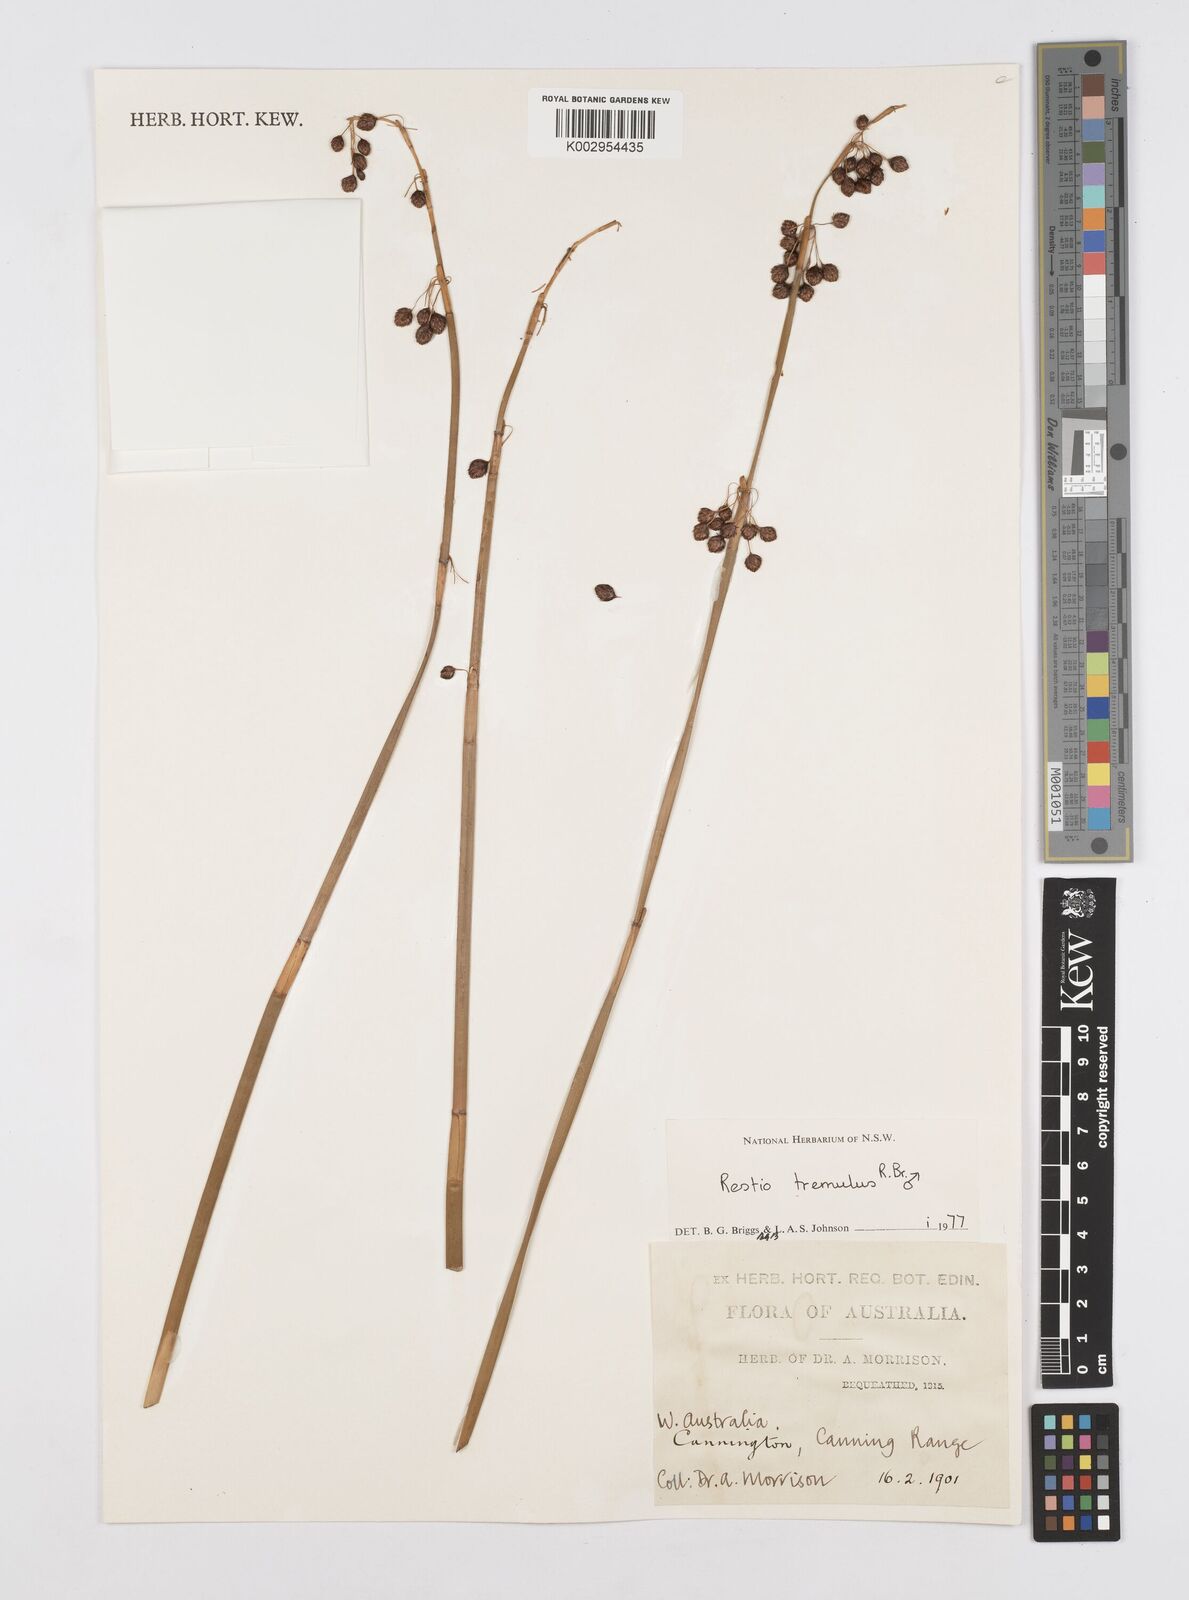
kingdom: Plantae
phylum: Tracheophyta
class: Liliopsida
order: Poales
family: Restionaceae
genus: Tremulina
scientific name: Tremulina tremula
